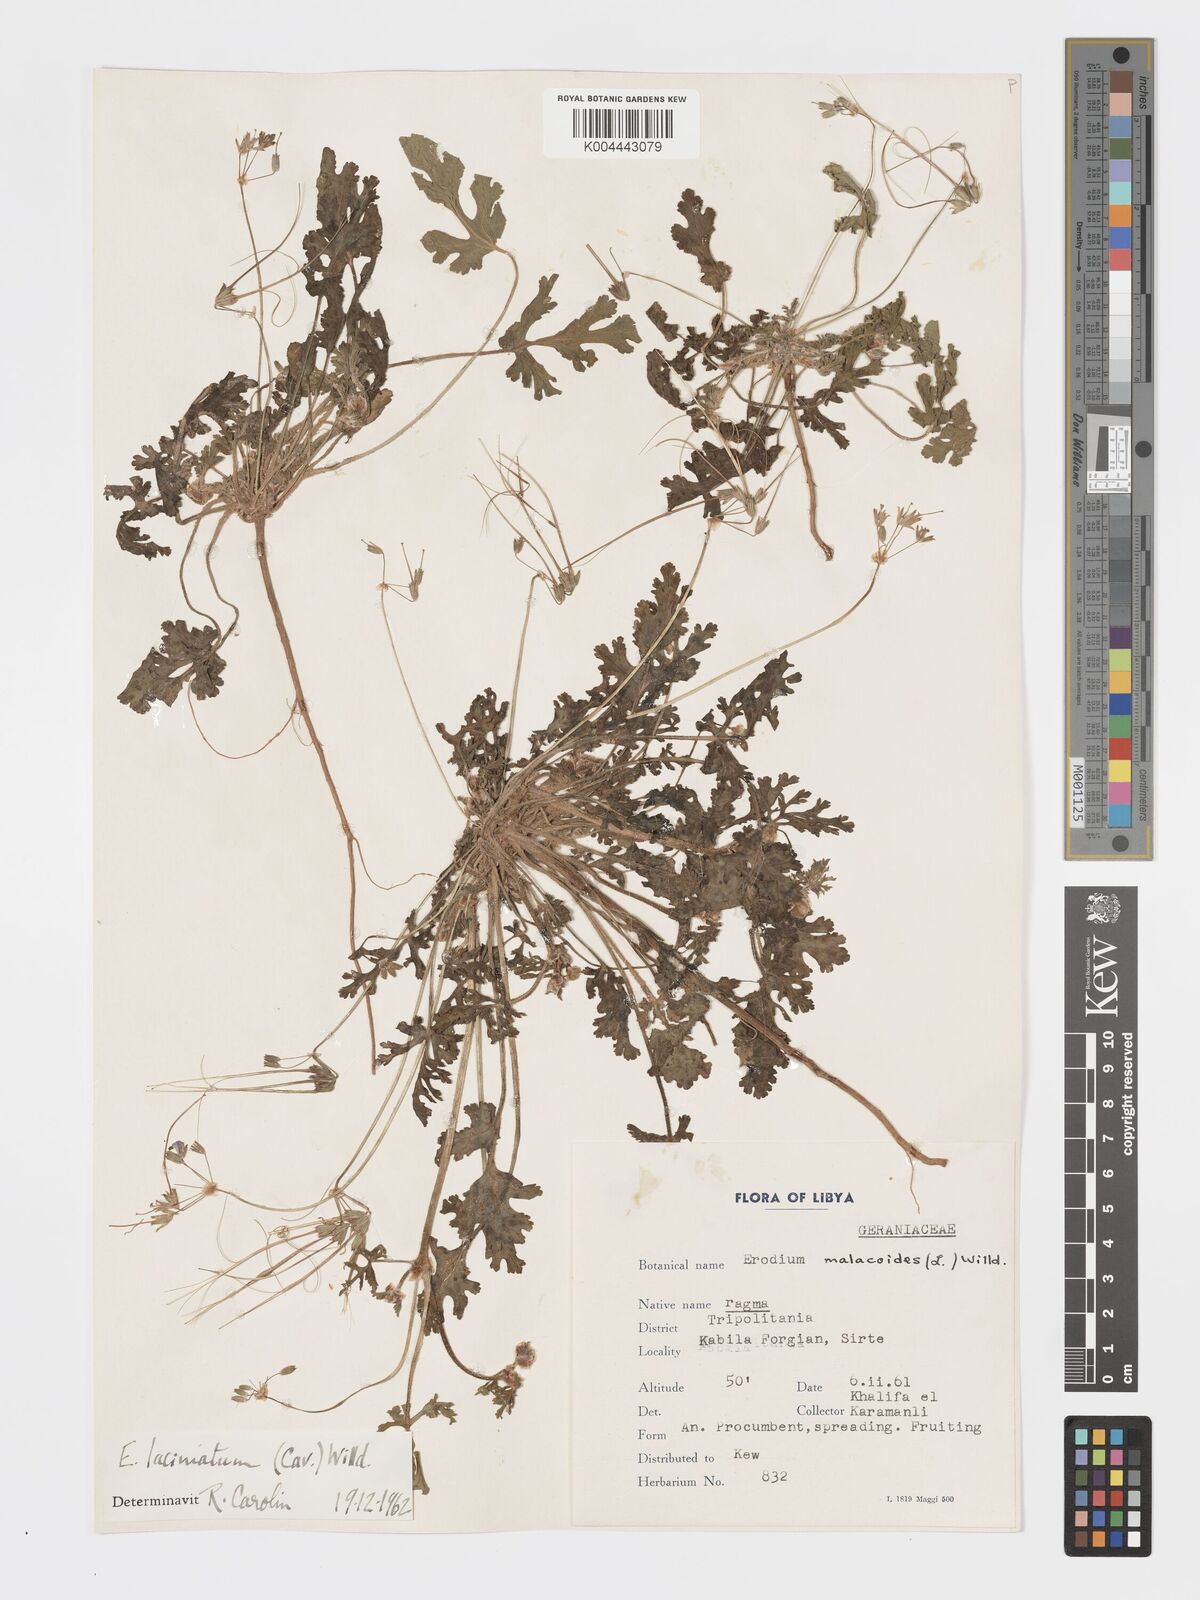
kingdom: Plantae
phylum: Tracheophyta
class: Magnoliopsida
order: Geraniales
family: Geraniaceae
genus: Erodium
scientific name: Erodium laciniatum
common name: Cutleaf stork's bill
